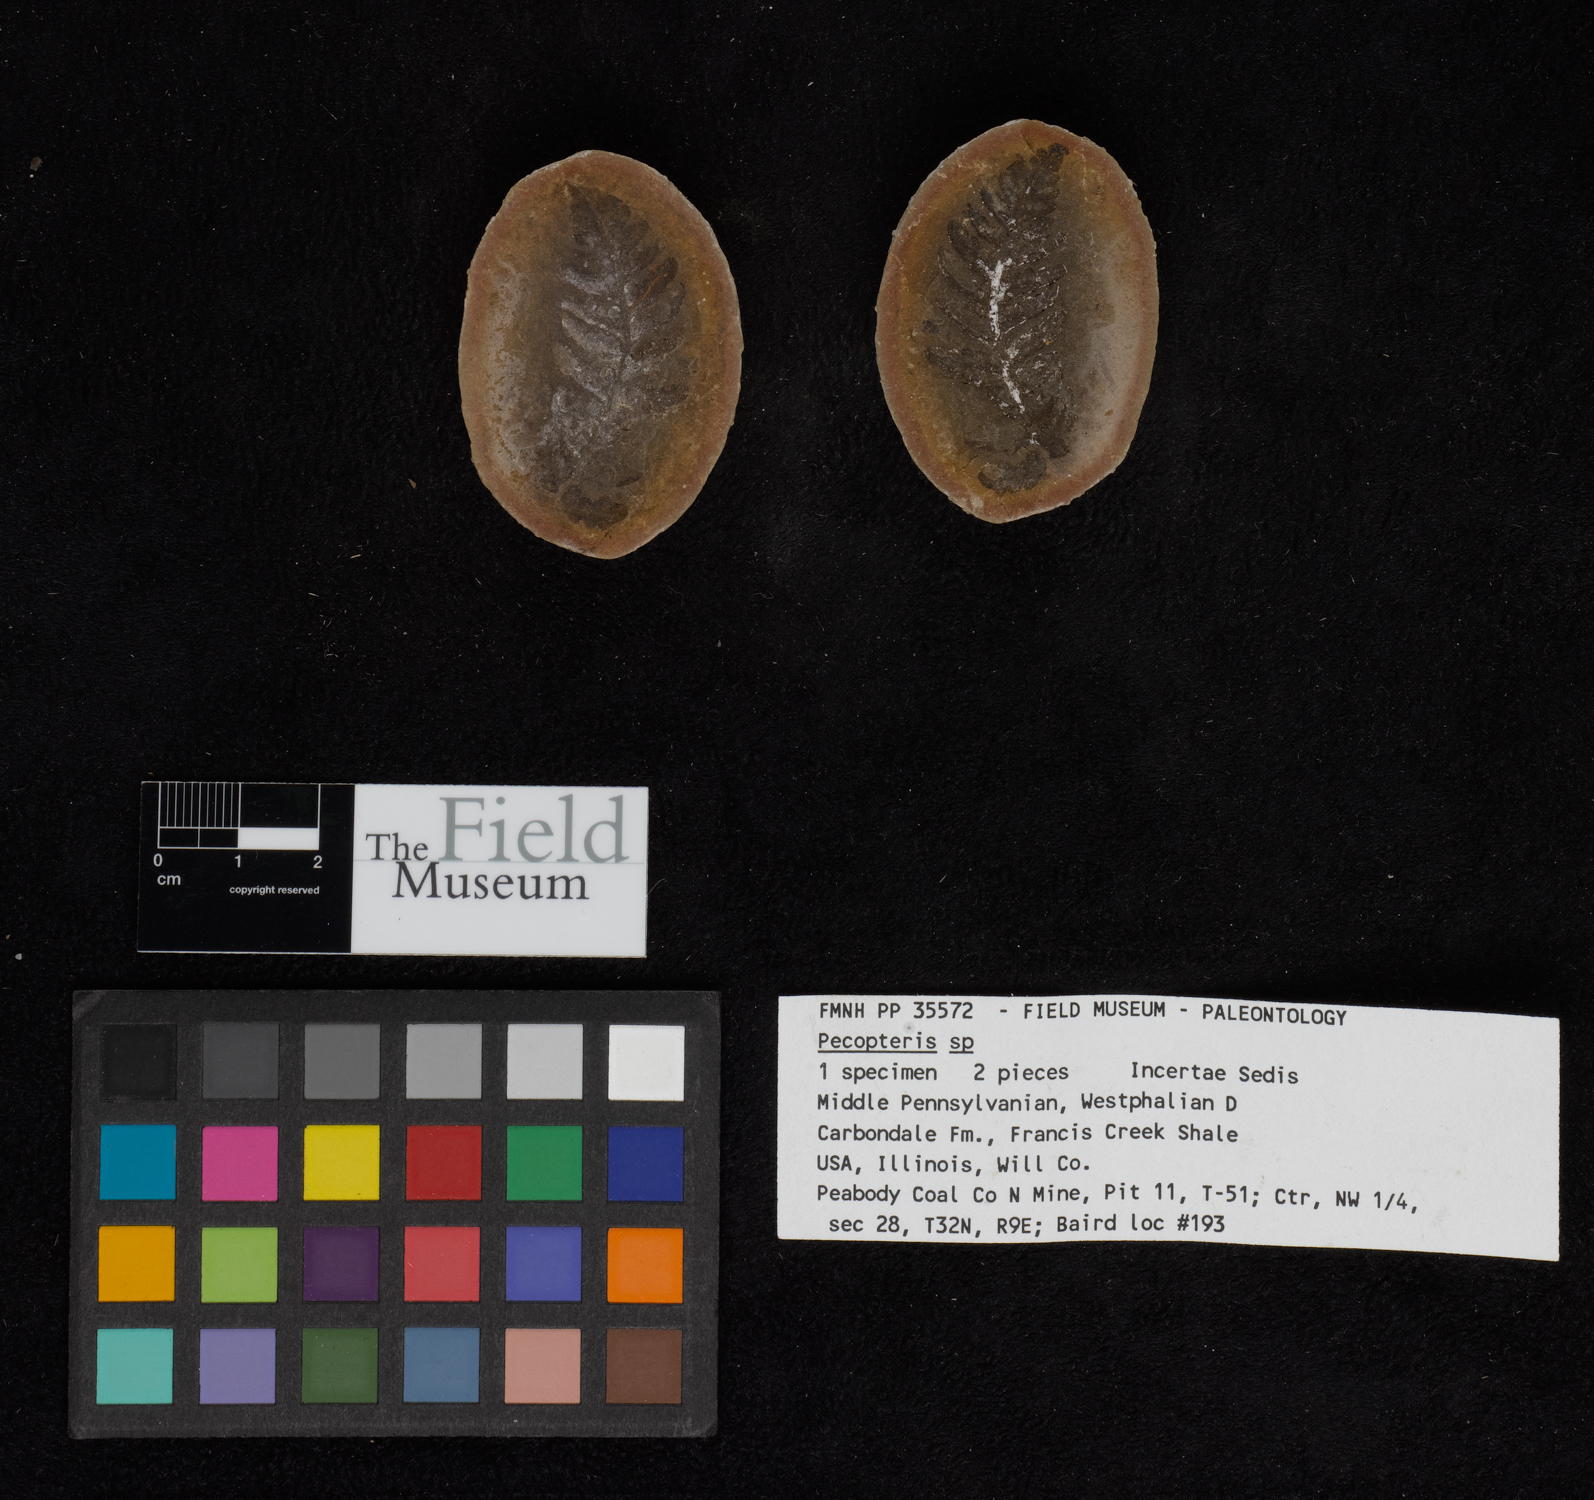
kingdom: Plantae
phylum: Tracheophyta
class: Polypodiopsida
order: Marattiales
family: Asterothecaceae
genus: Pecopteris
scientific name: Pecopteris
